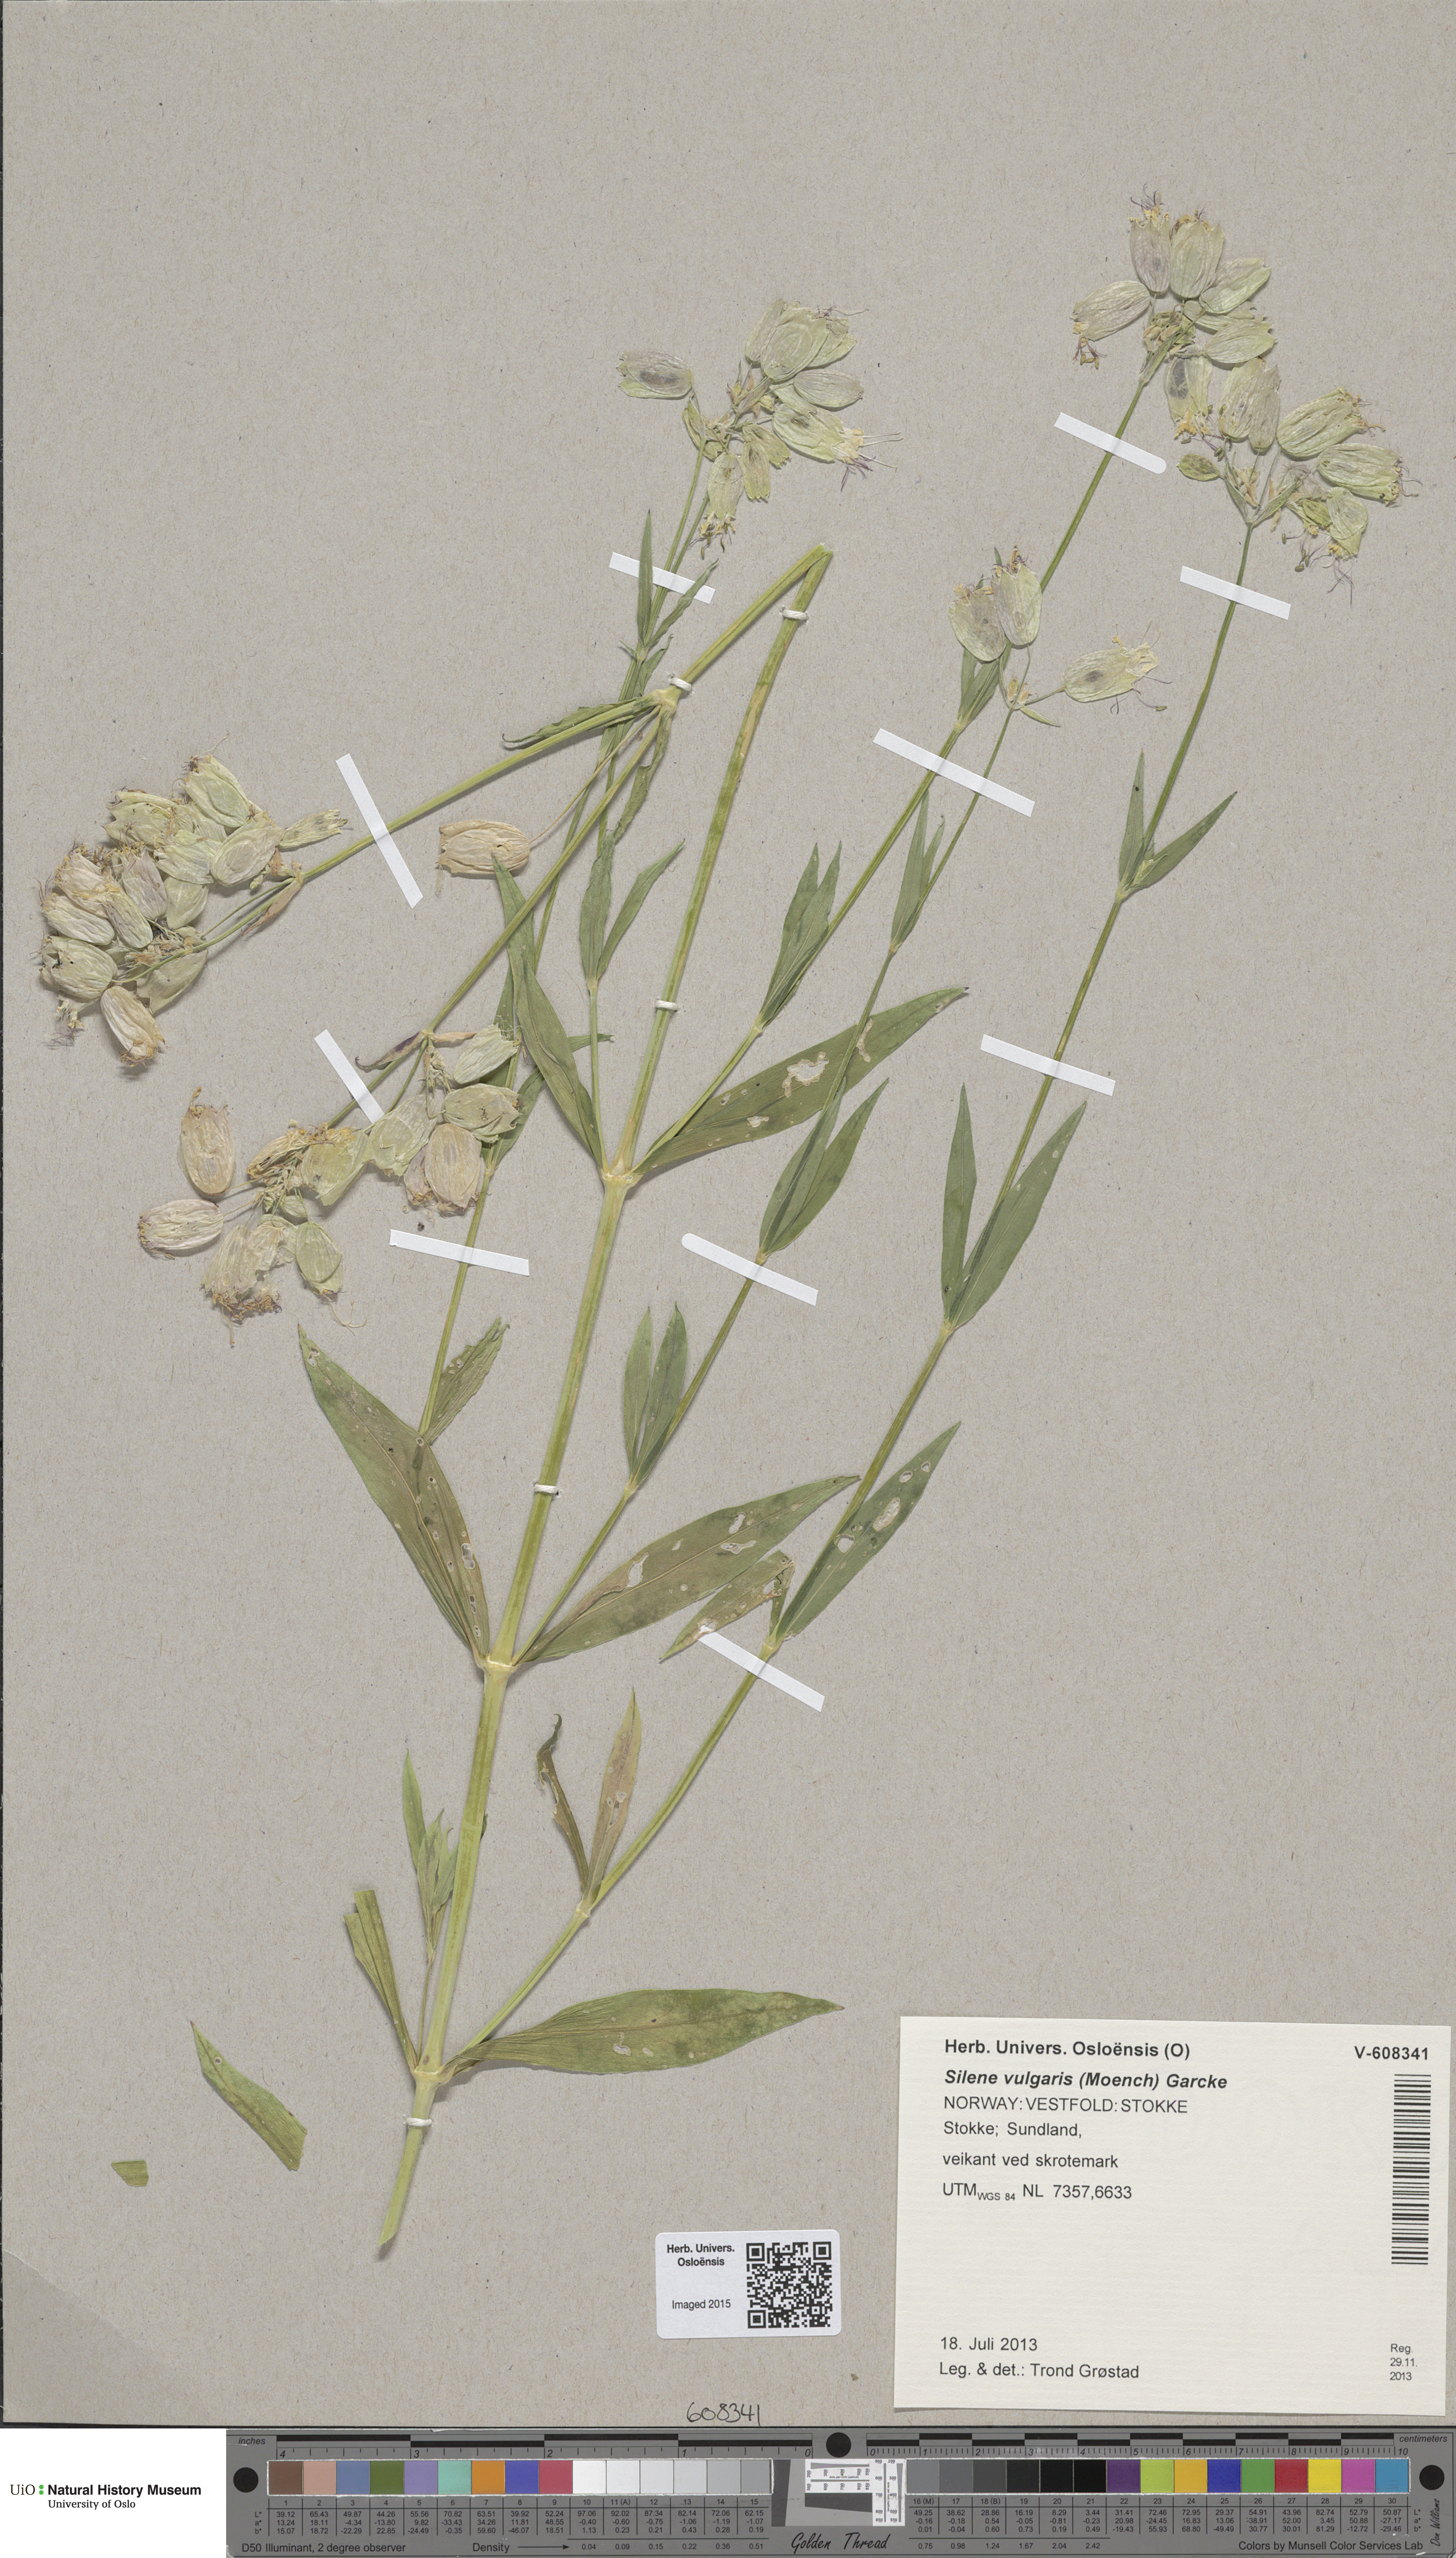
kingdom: Plantae
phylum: Tracheophyta
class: Magnoliopsida
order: Caryophyllales
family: Caryophyllaceae
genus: Silene
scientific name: Silene vulgaris
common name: Bladder campion
